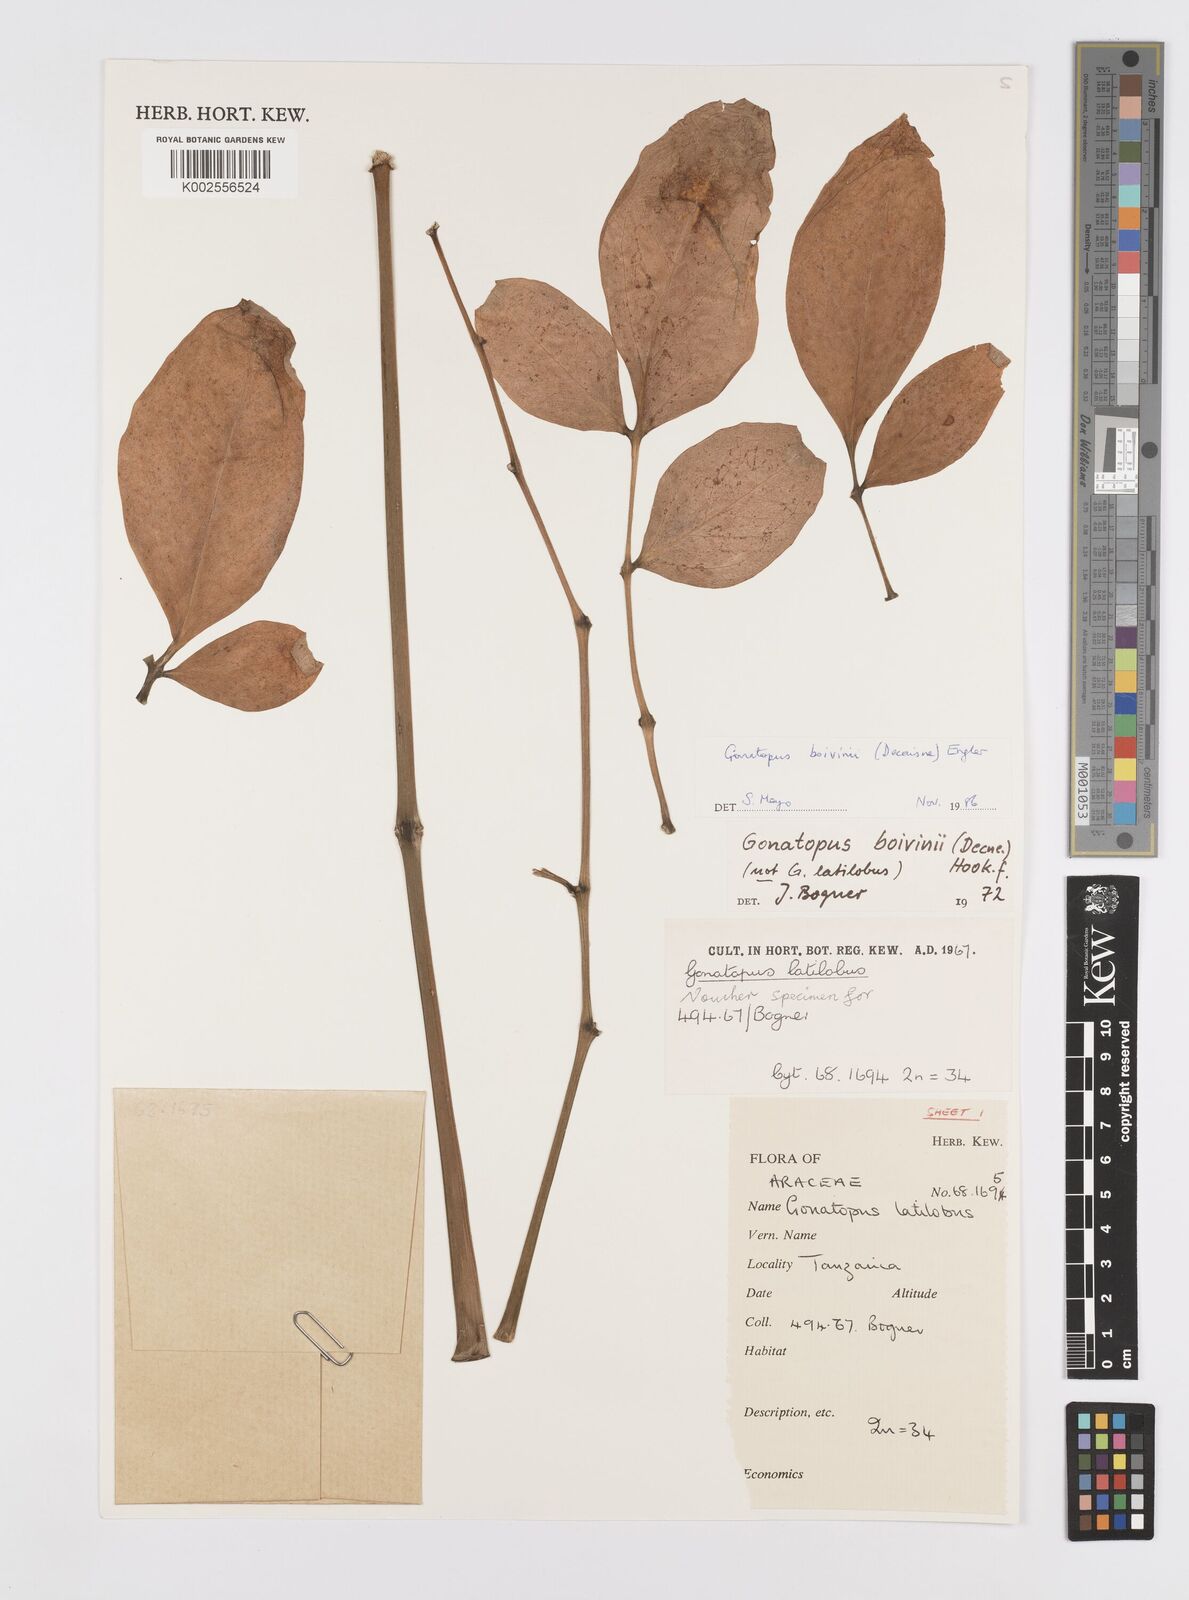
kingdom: Plantae
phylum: Tracheophyta
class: Liliopsida
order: Alismatales
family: Araceae
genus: Gonatopus
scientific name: Gonatopus boivinii
